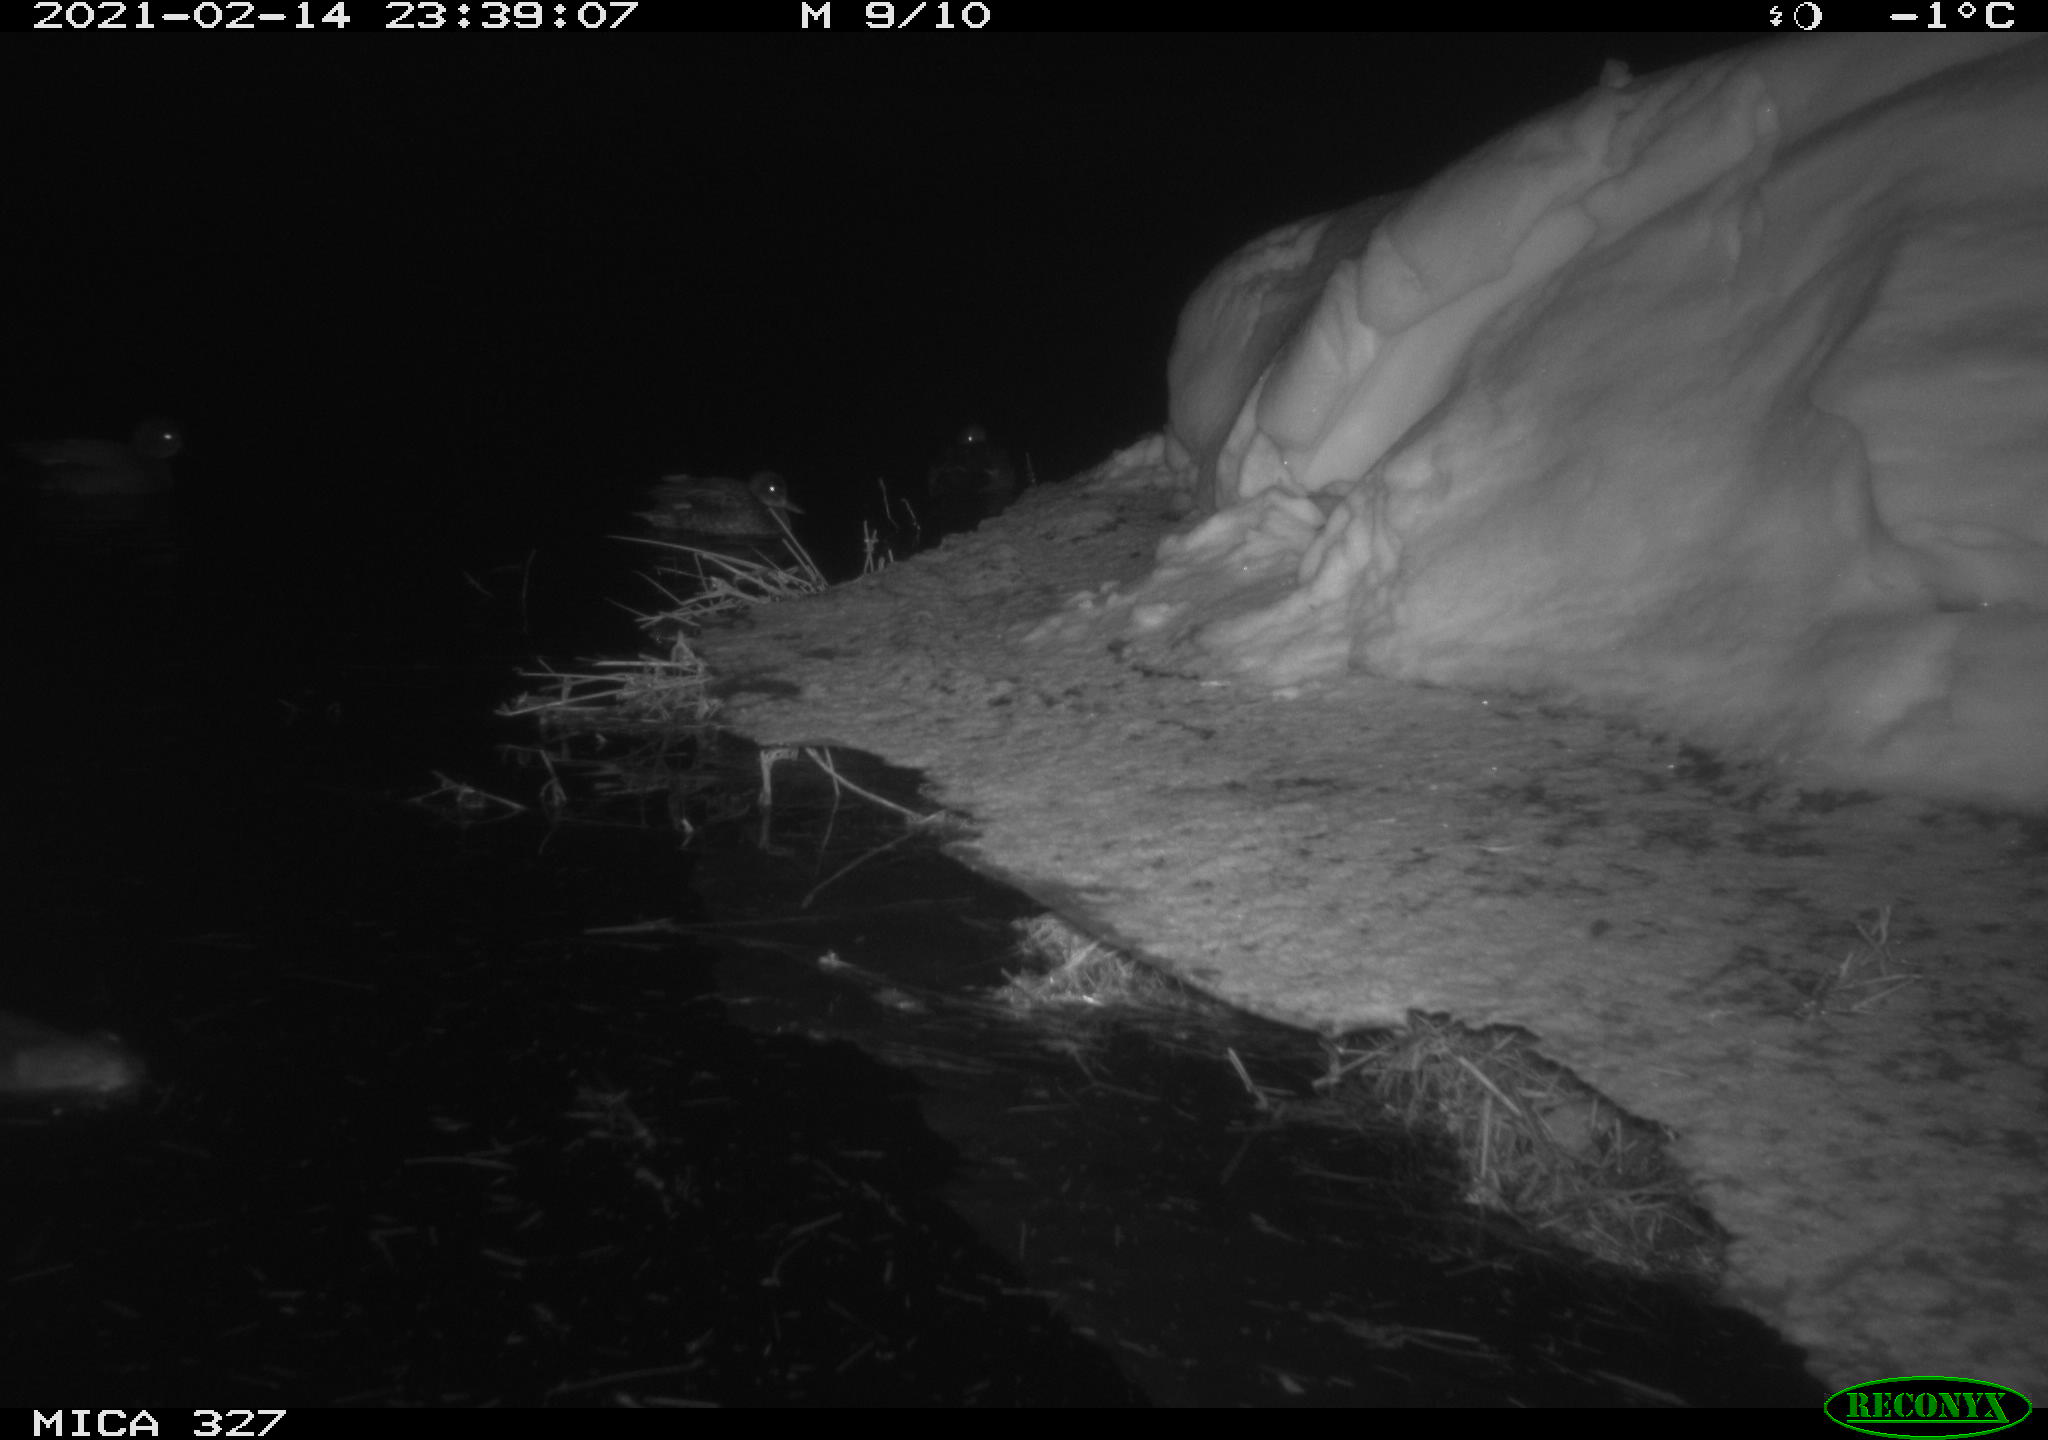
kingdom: Animalia
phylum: Chordata
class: Aves
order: Anseriformes
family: Anatidae
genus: Anas
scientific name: Anas
